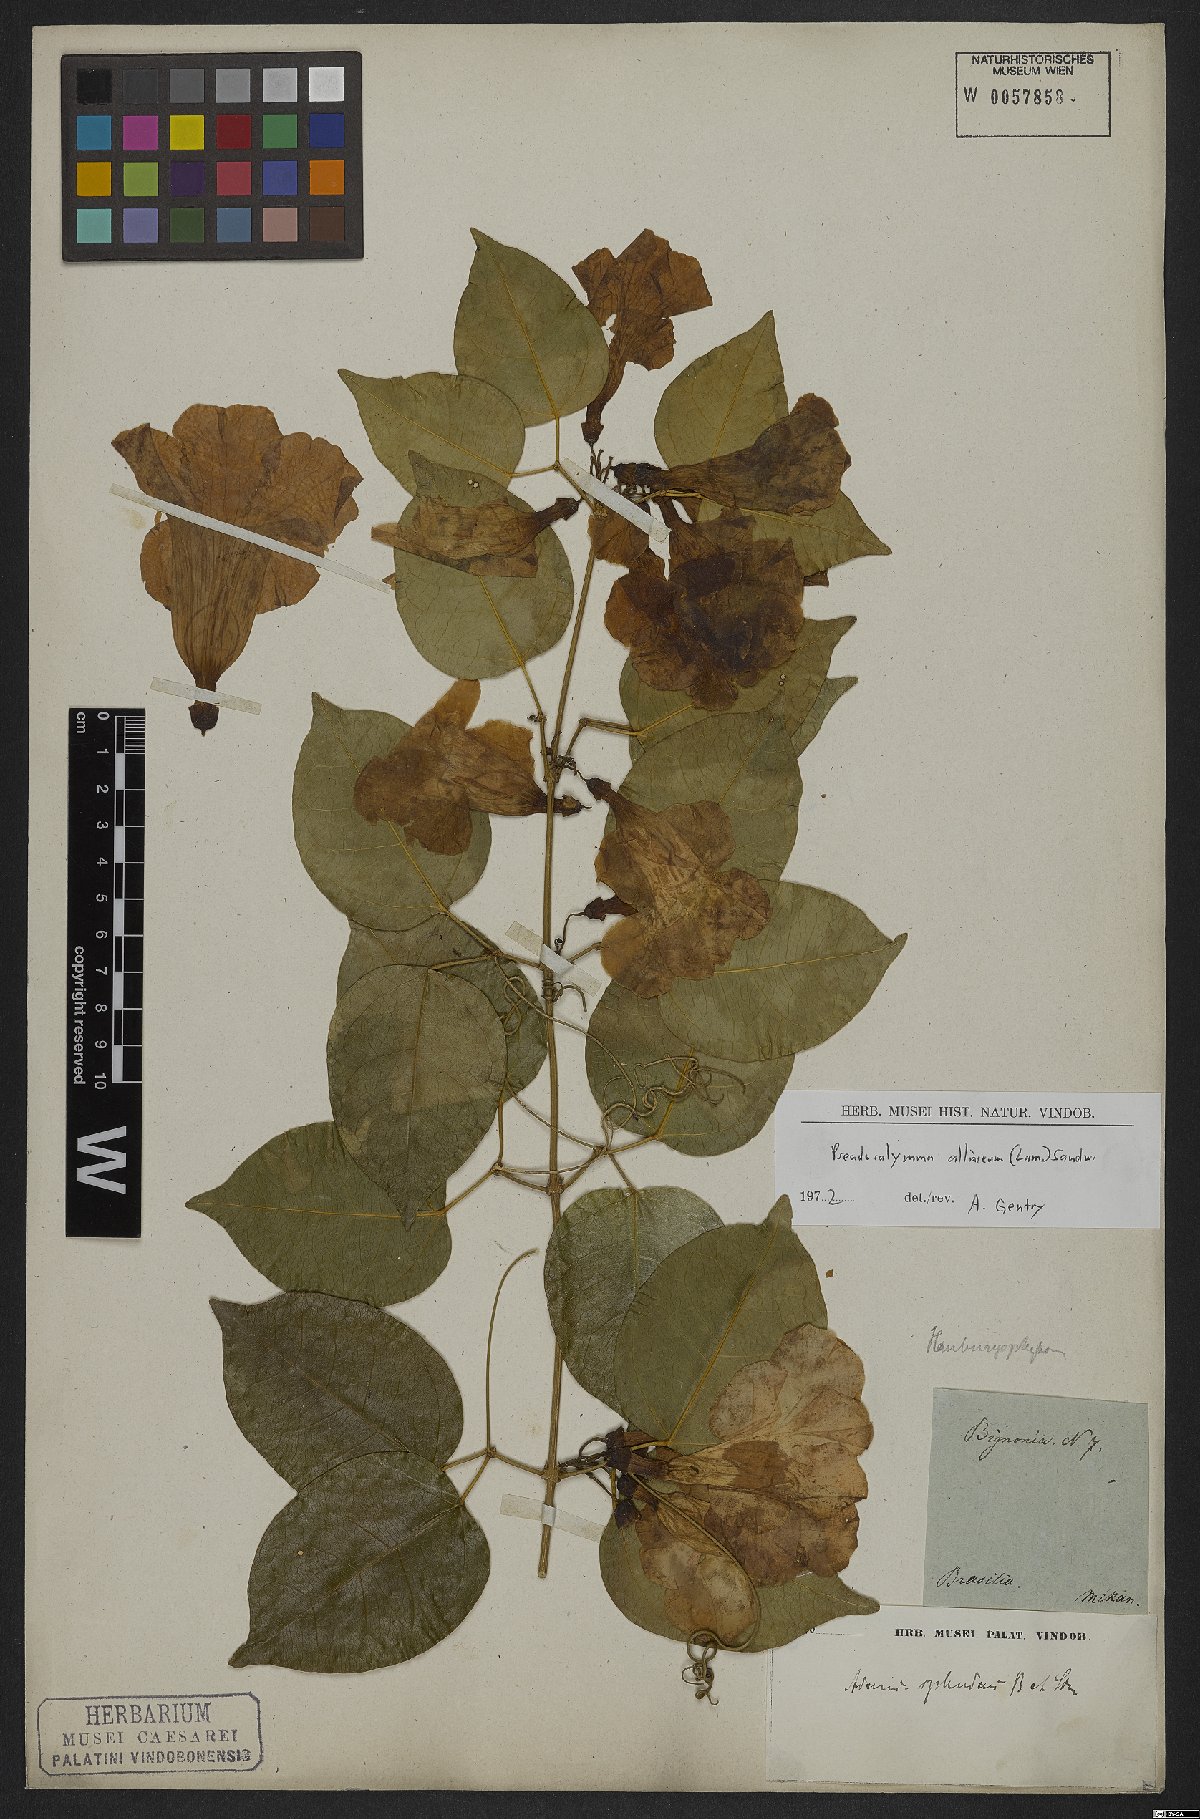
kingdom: Plantae
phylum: Tracheophyta
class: Magnoliopsida
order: Lamiales
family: Bignoniaceae
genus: Mansoa
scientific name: Mansoa alliacea
